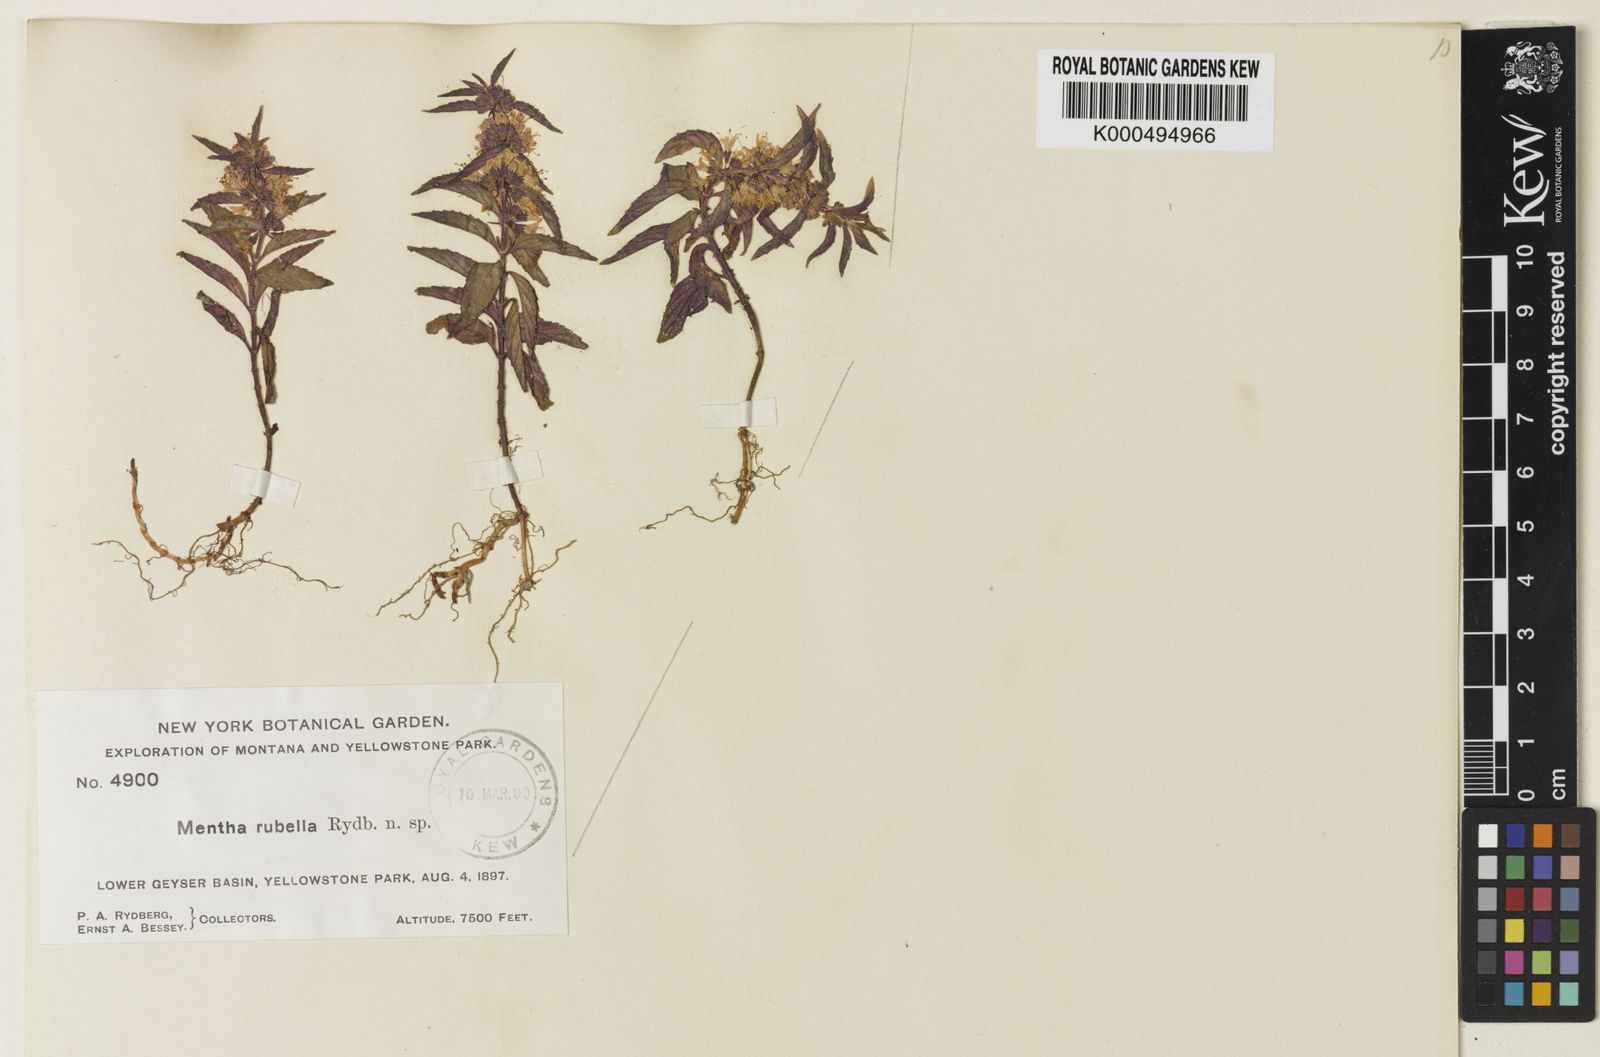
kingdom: Plantae
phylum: Tracheophyta
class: Magnoliopsida
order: Lamiales
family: Lamiaceae
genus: Mentha
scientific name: Mentha rubella
